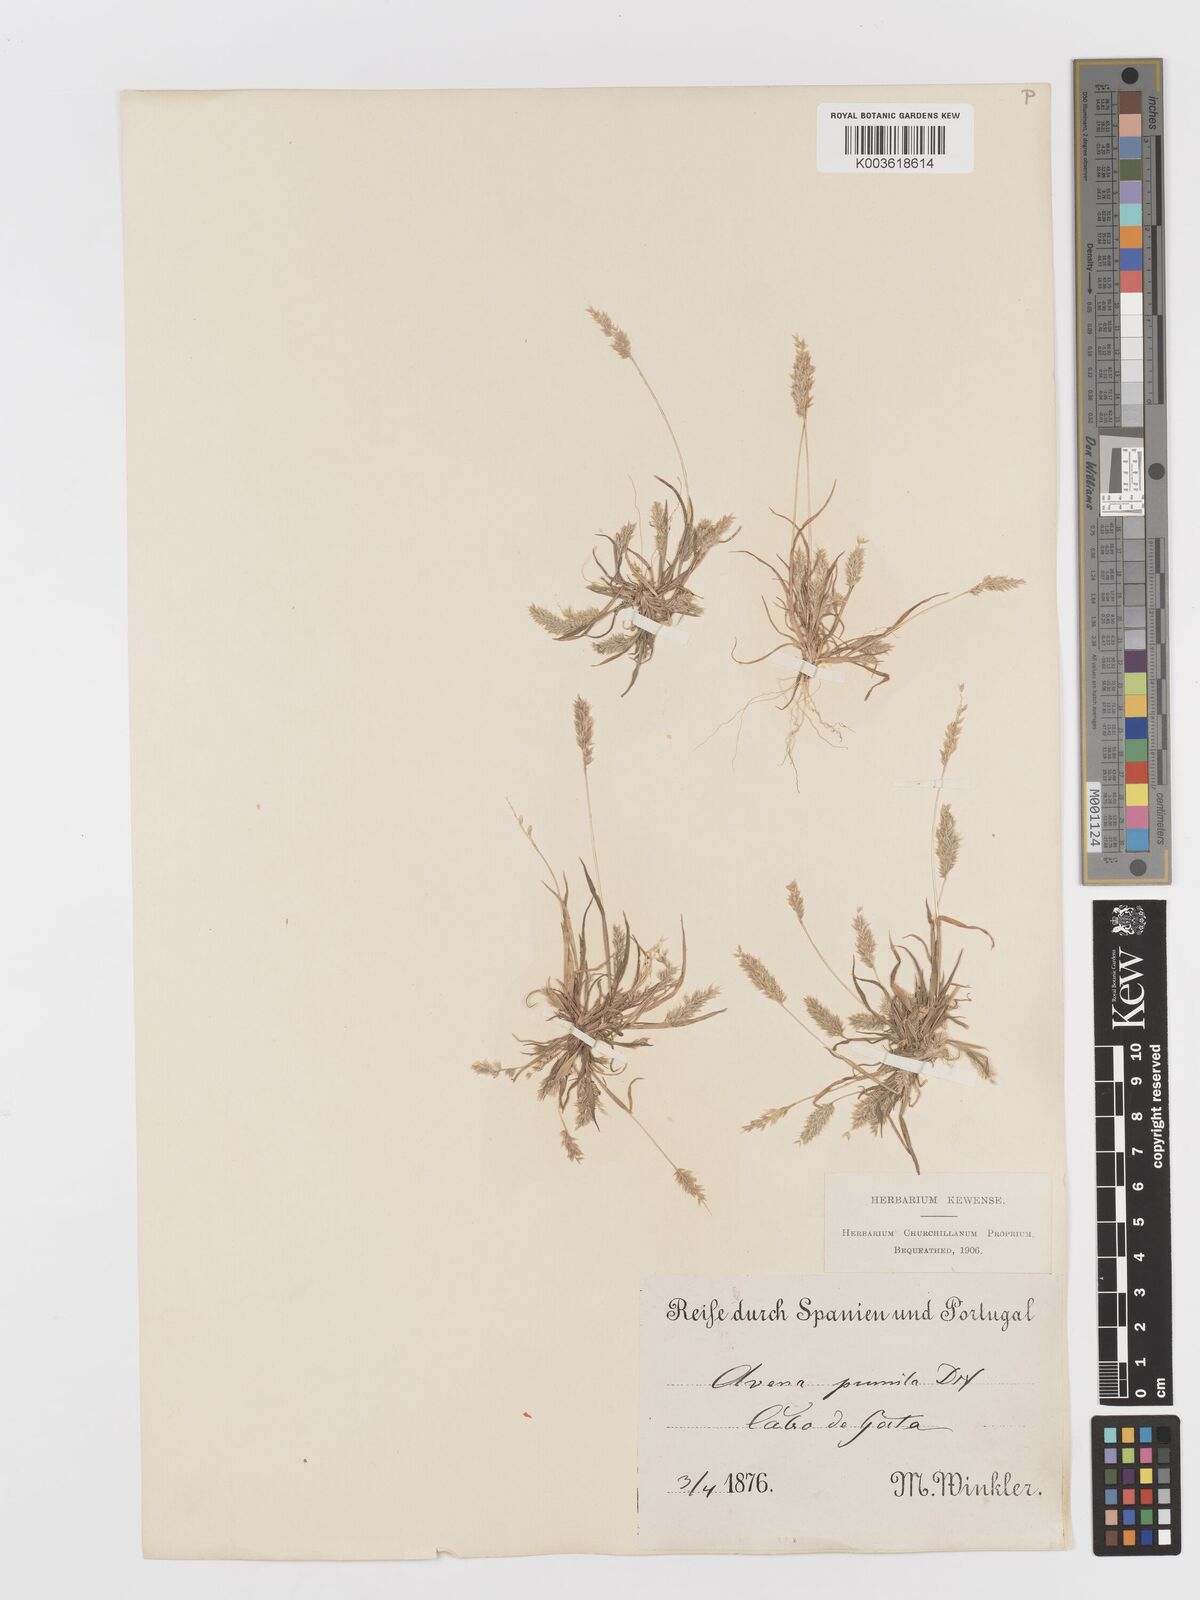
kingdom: Plantae
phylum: Tracheophyta
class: Liliopsida
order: Poales
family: Poaceae
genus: Rostraria
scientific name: Rostraria pumila
